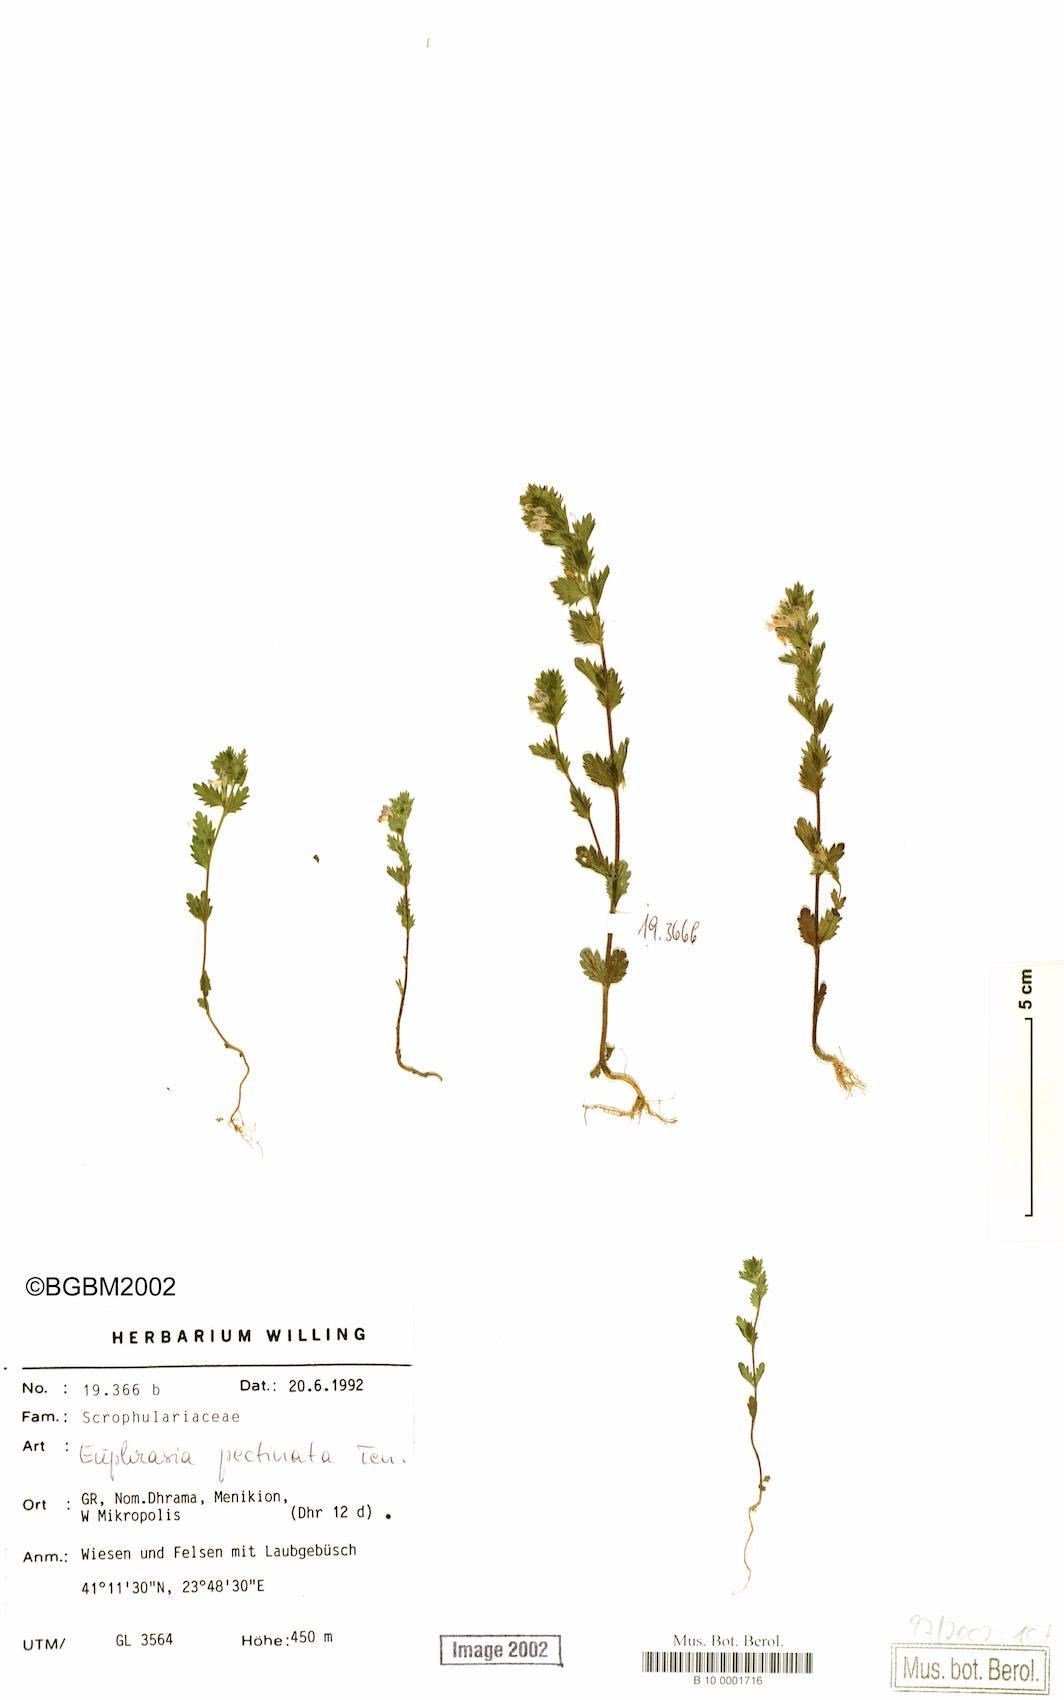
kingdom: Plantae
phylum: Tracheophyta
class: Magnoliopsida
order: Lamiales
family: Orobanchaceae
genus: Euphrasia
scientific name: Euphrasia pectinata
